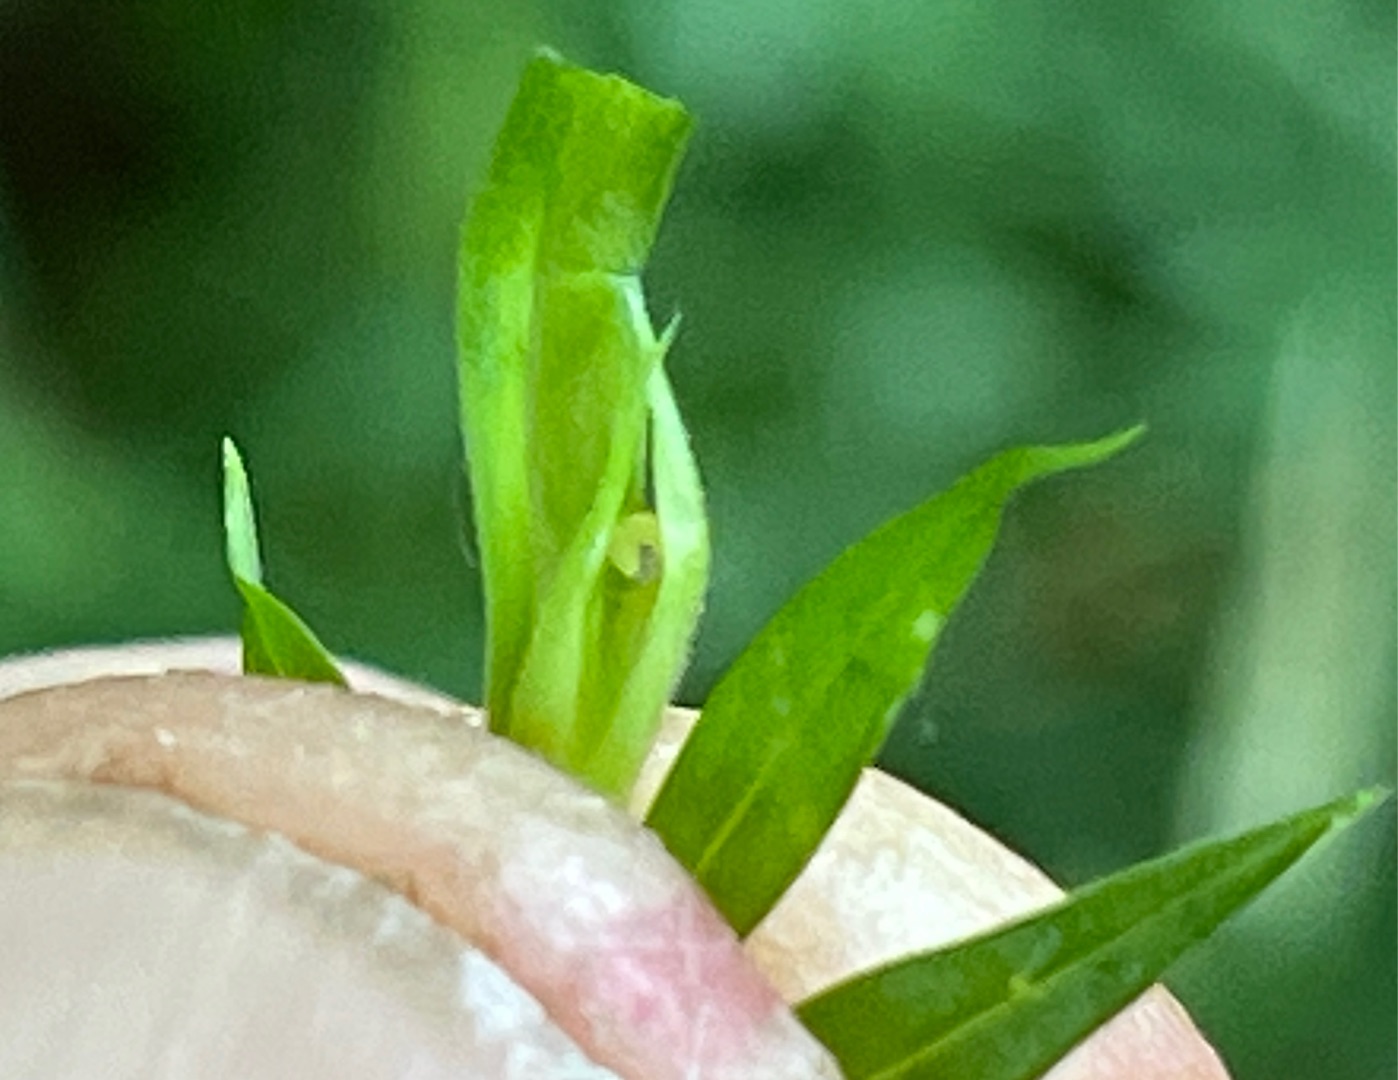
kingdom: Animalia
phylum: Arthropoda
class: Insecta
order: Diptera
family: Cecidomyiidae
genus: Macrolabis
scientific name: Macrolabis holosteae
